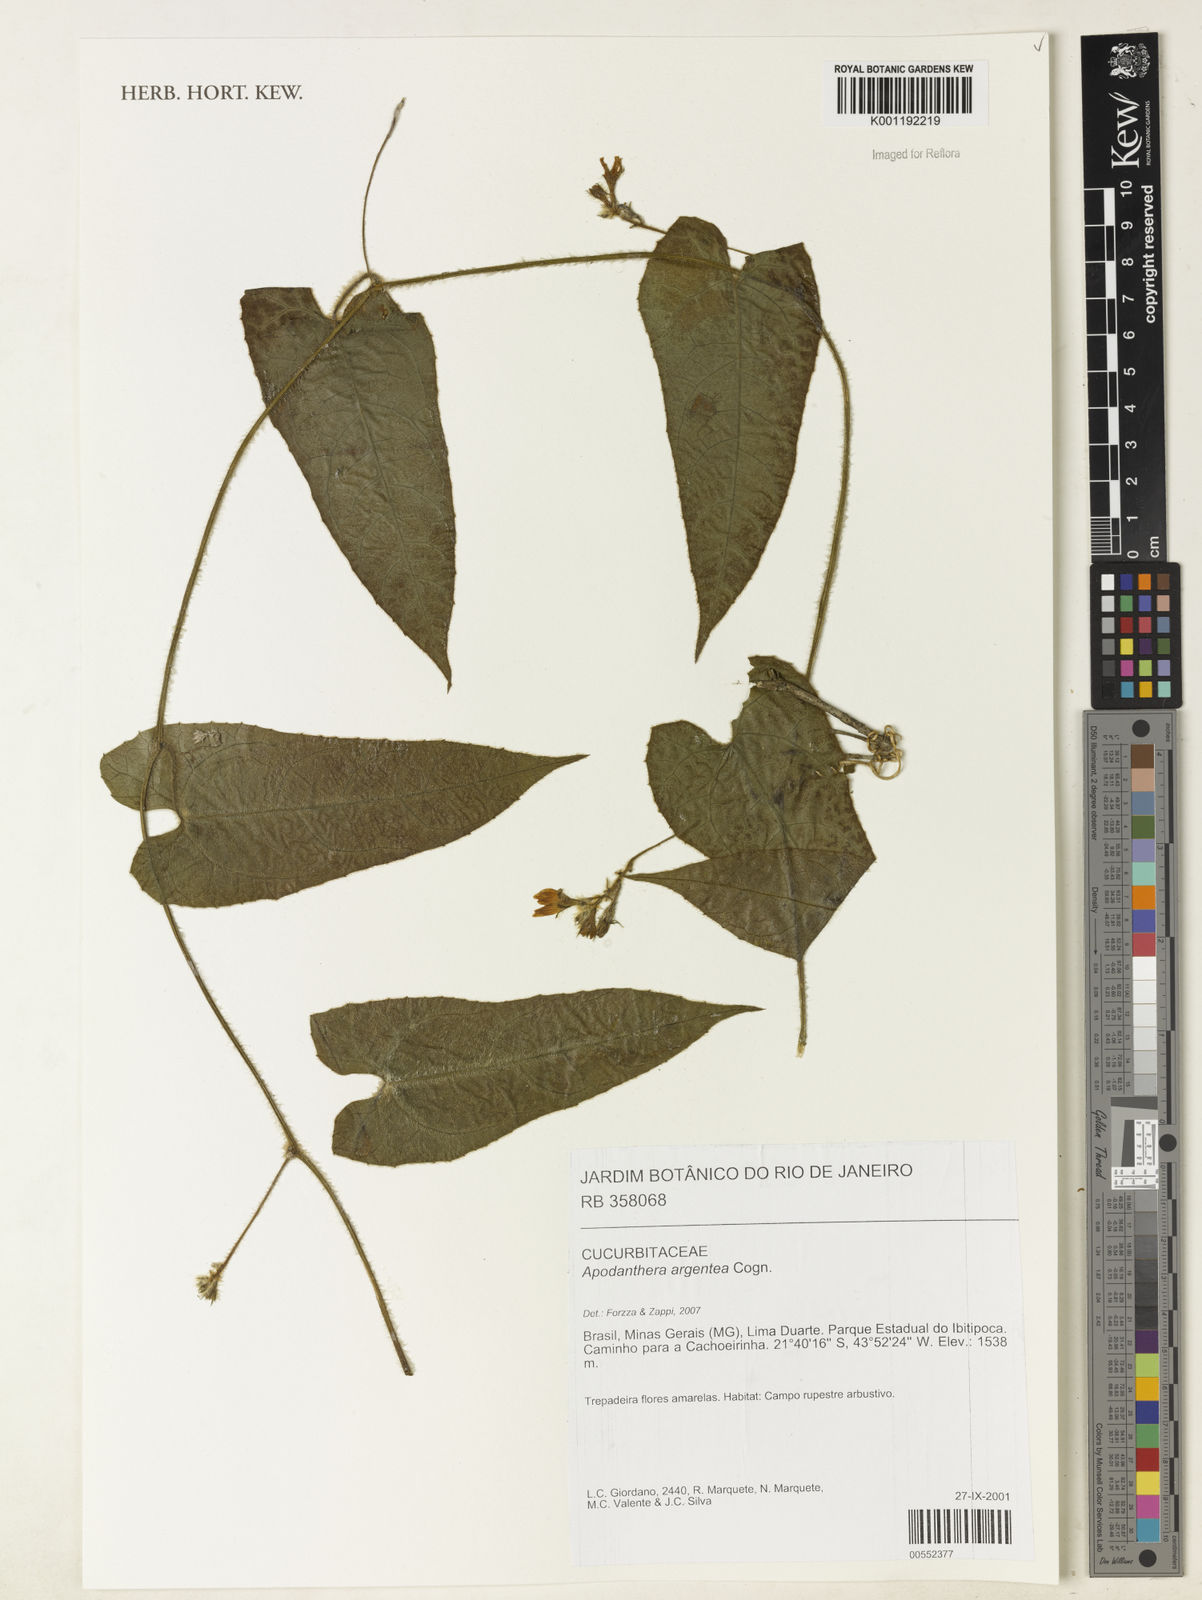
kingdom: Plantae
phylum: Tracheophyta
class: Magnoliopsida
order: Cucurbitales
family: Cucurbitaceae
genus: Apodanthera
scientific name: Apodanthera argentea
